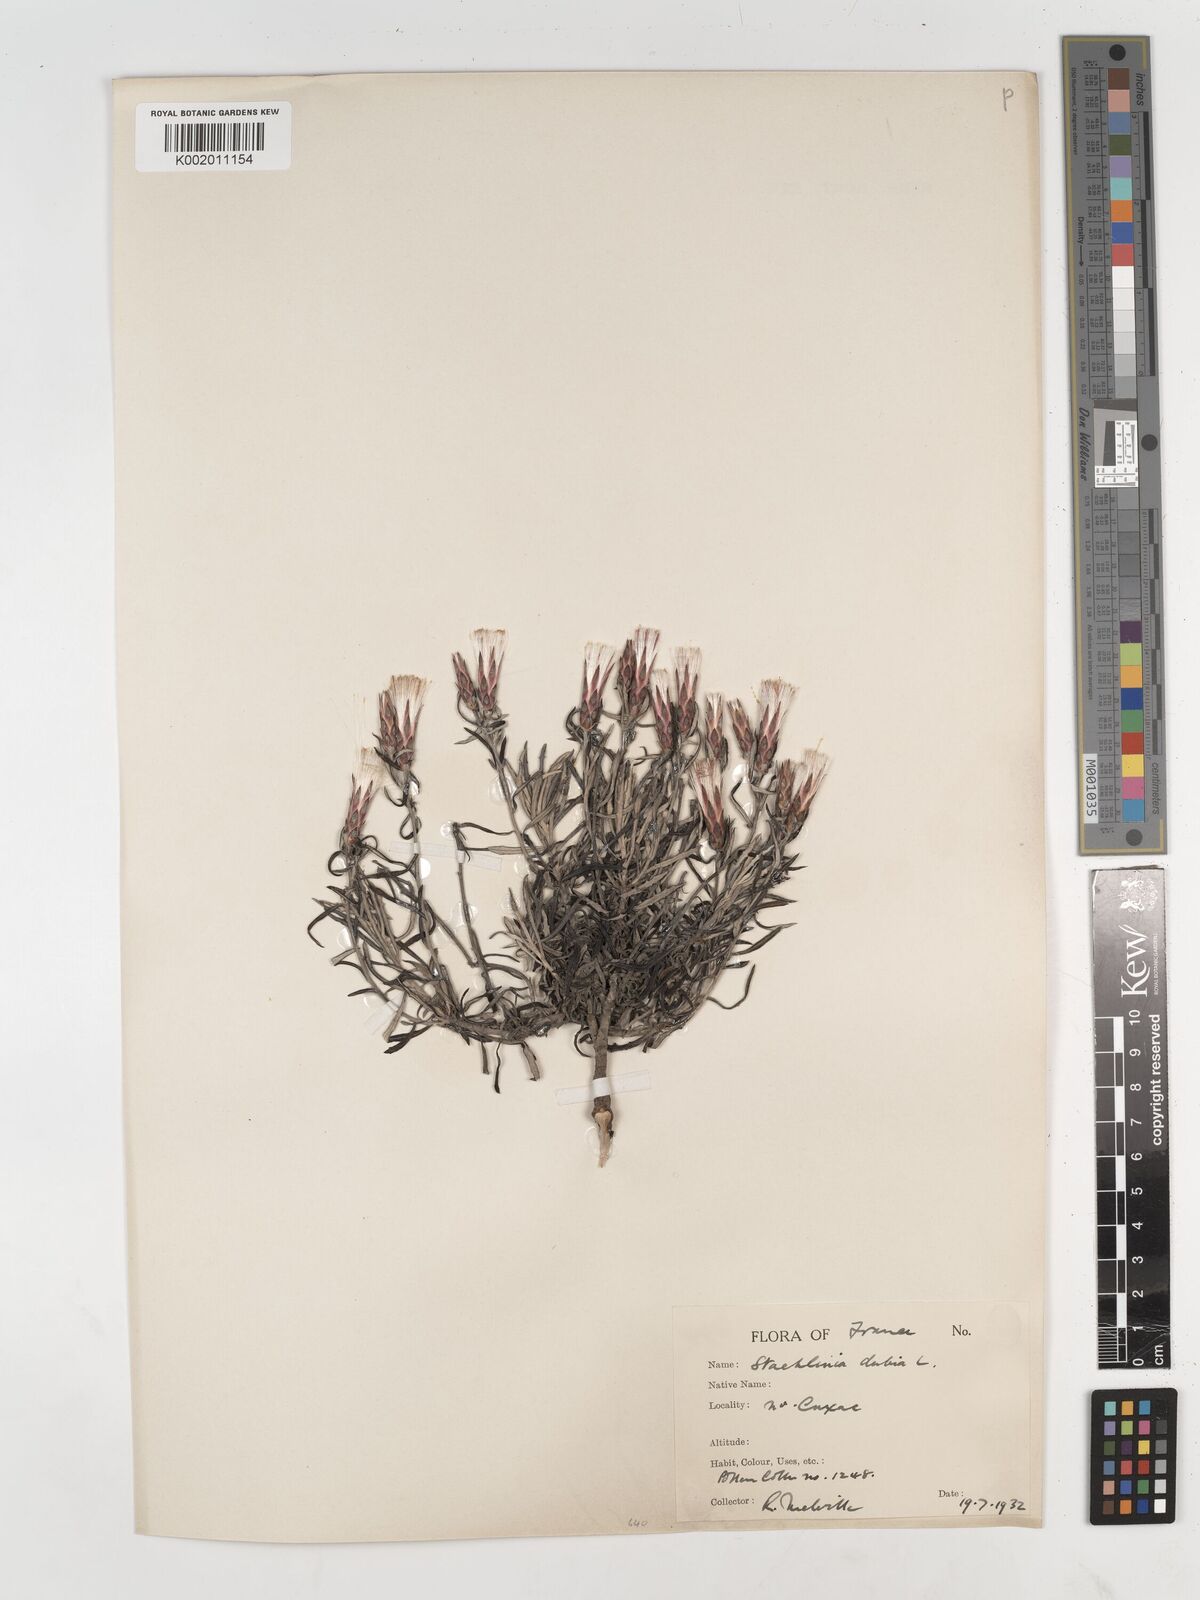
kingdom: Plantae
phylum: Tracheophyta
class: Magnoliopsida
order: Asterales
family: Asteraceae
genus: Staehelina
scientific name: Staehelina dubia
